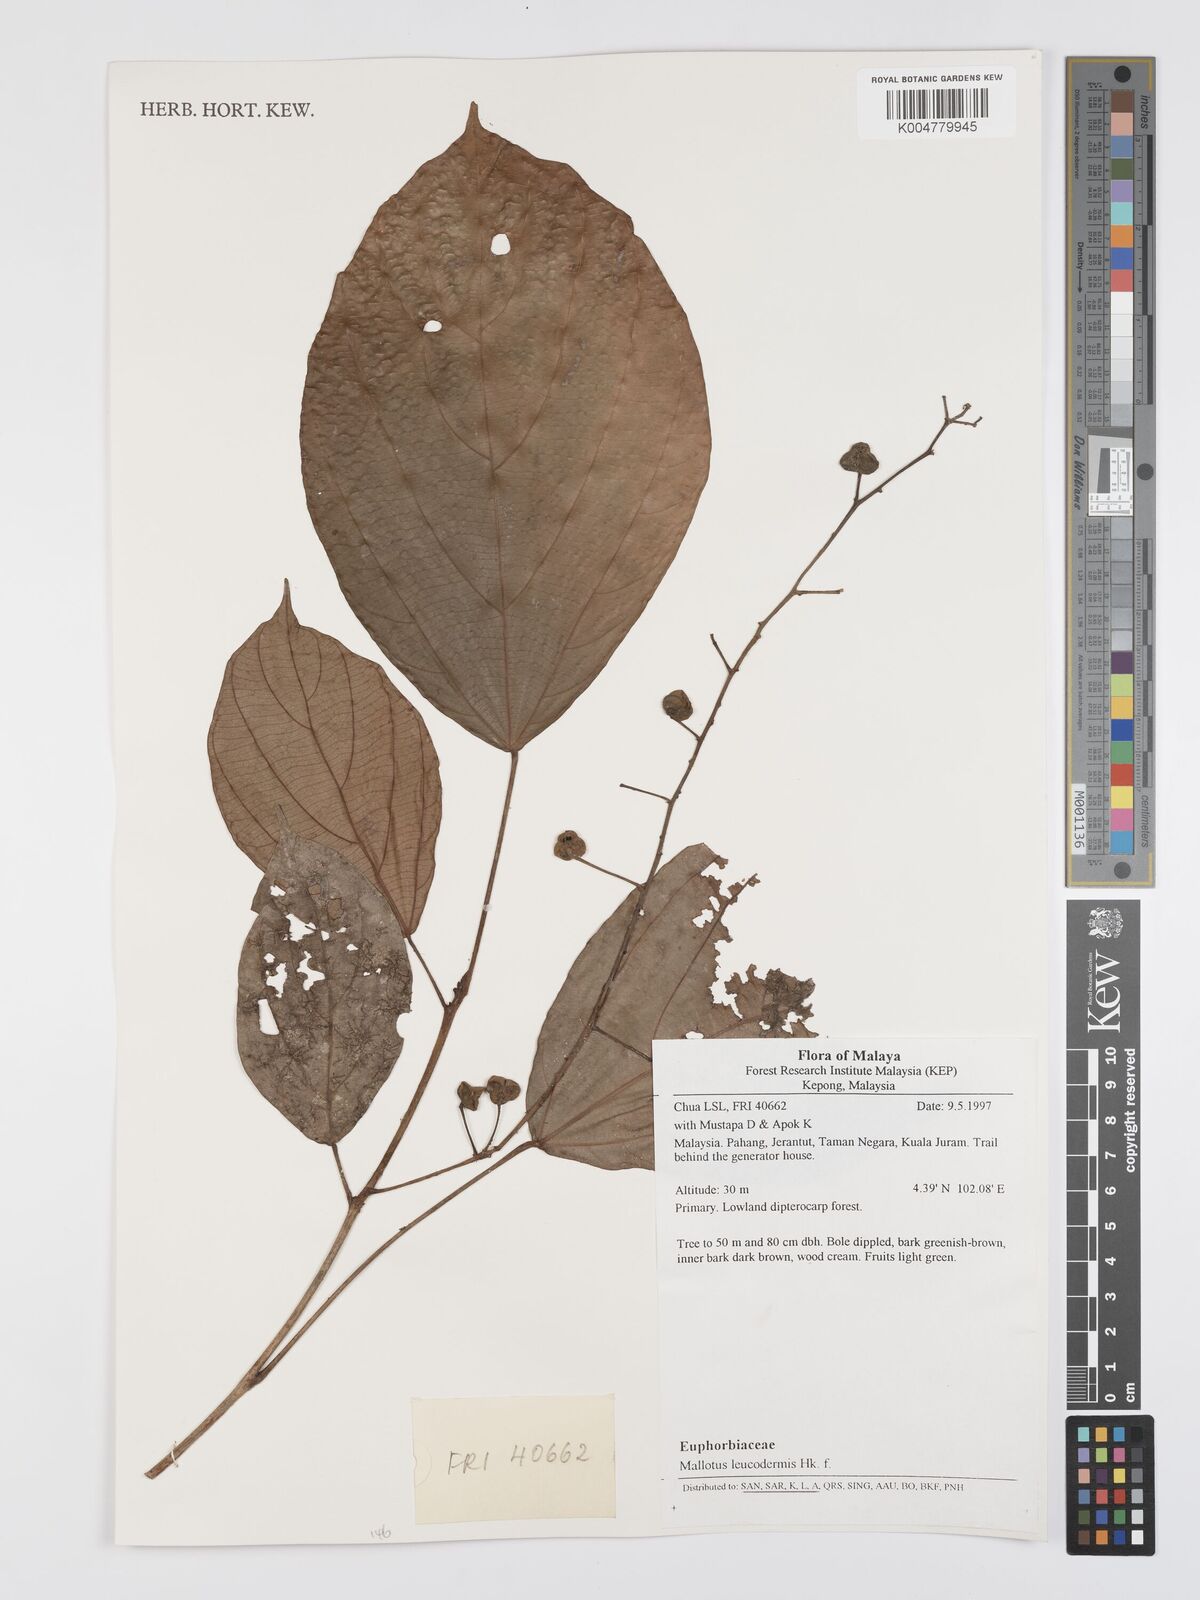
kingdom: Plantae
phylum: Tracheophyta
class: Magnoliopsida
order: Malpighiales
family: Euphorbiaceae
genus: Mallotus
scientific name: Mallotus leucodermis
